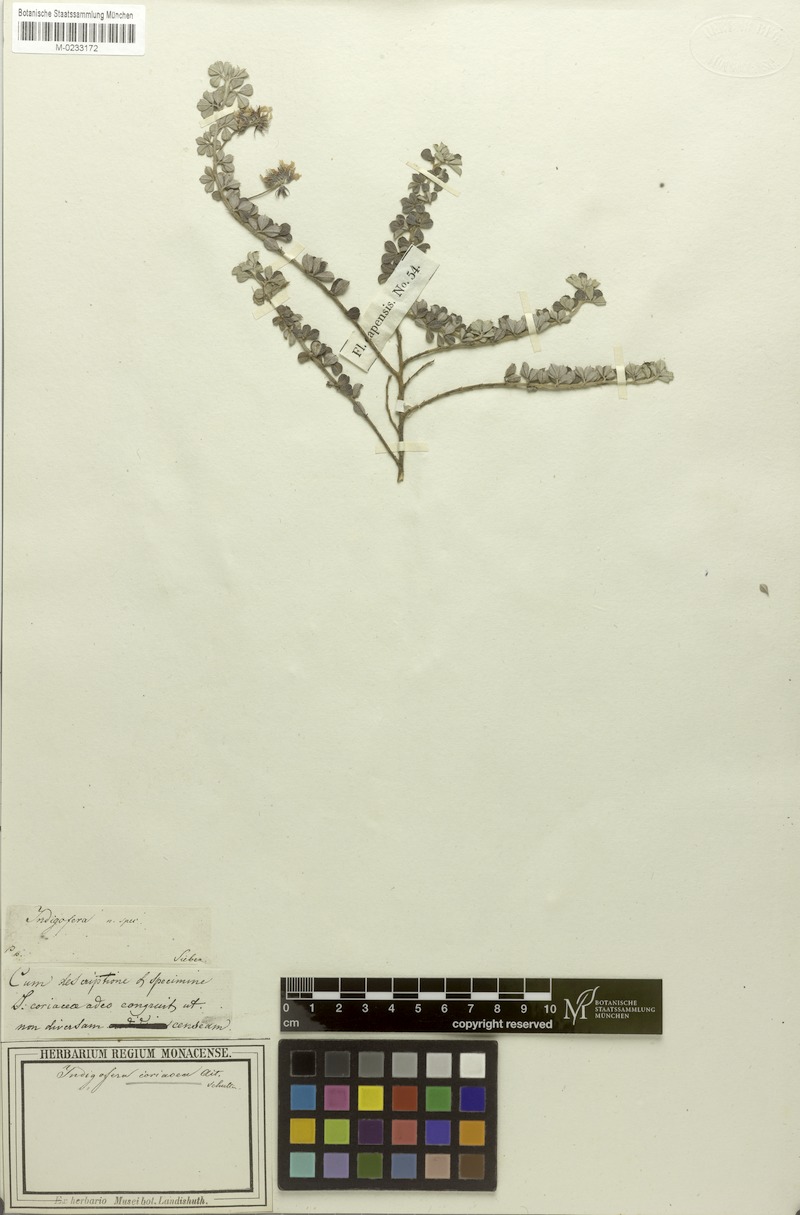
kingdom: Plantae
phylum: Tracheophyta
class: Magnoliopsida
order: Fabales
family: Fabaceae
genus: Indigofera
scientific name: Indigofera mauritanica
